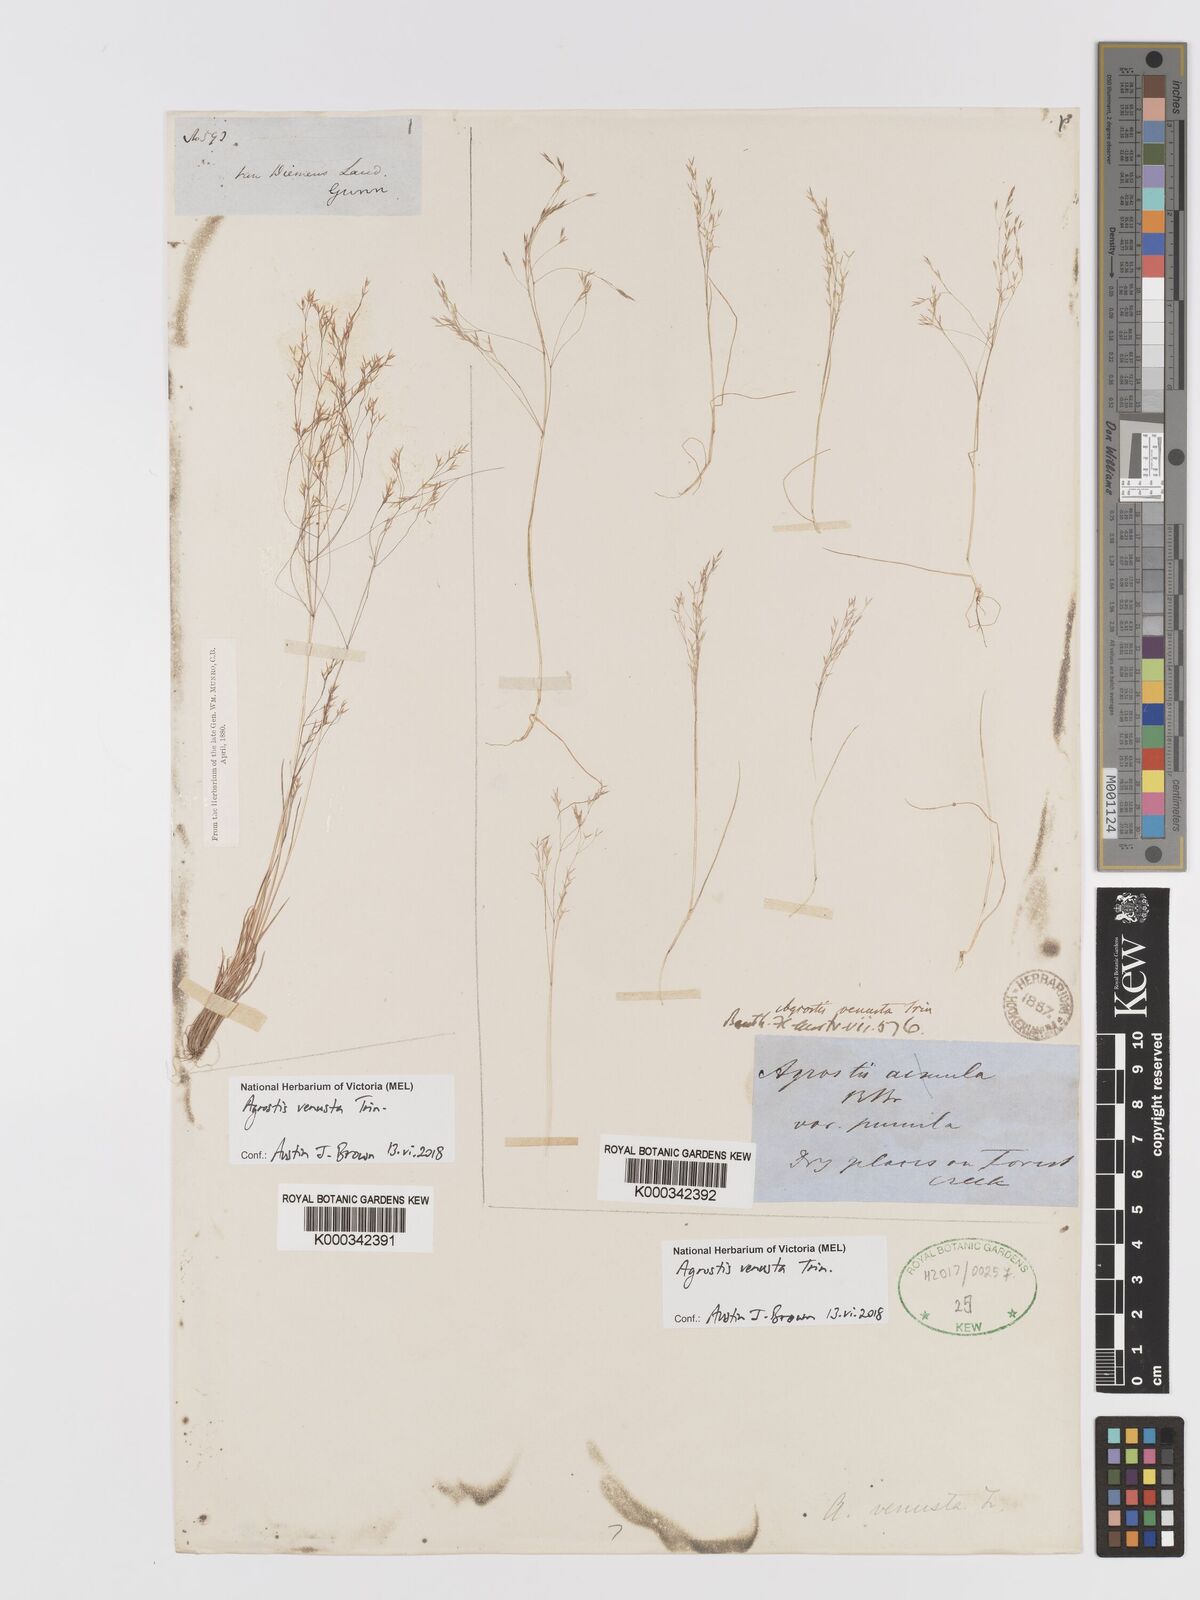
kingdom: Plantae
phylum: Tracheophyta
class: Liliopsida
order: Poales
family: Poaceae
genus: Agrostis
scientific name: Agrostis venusta
